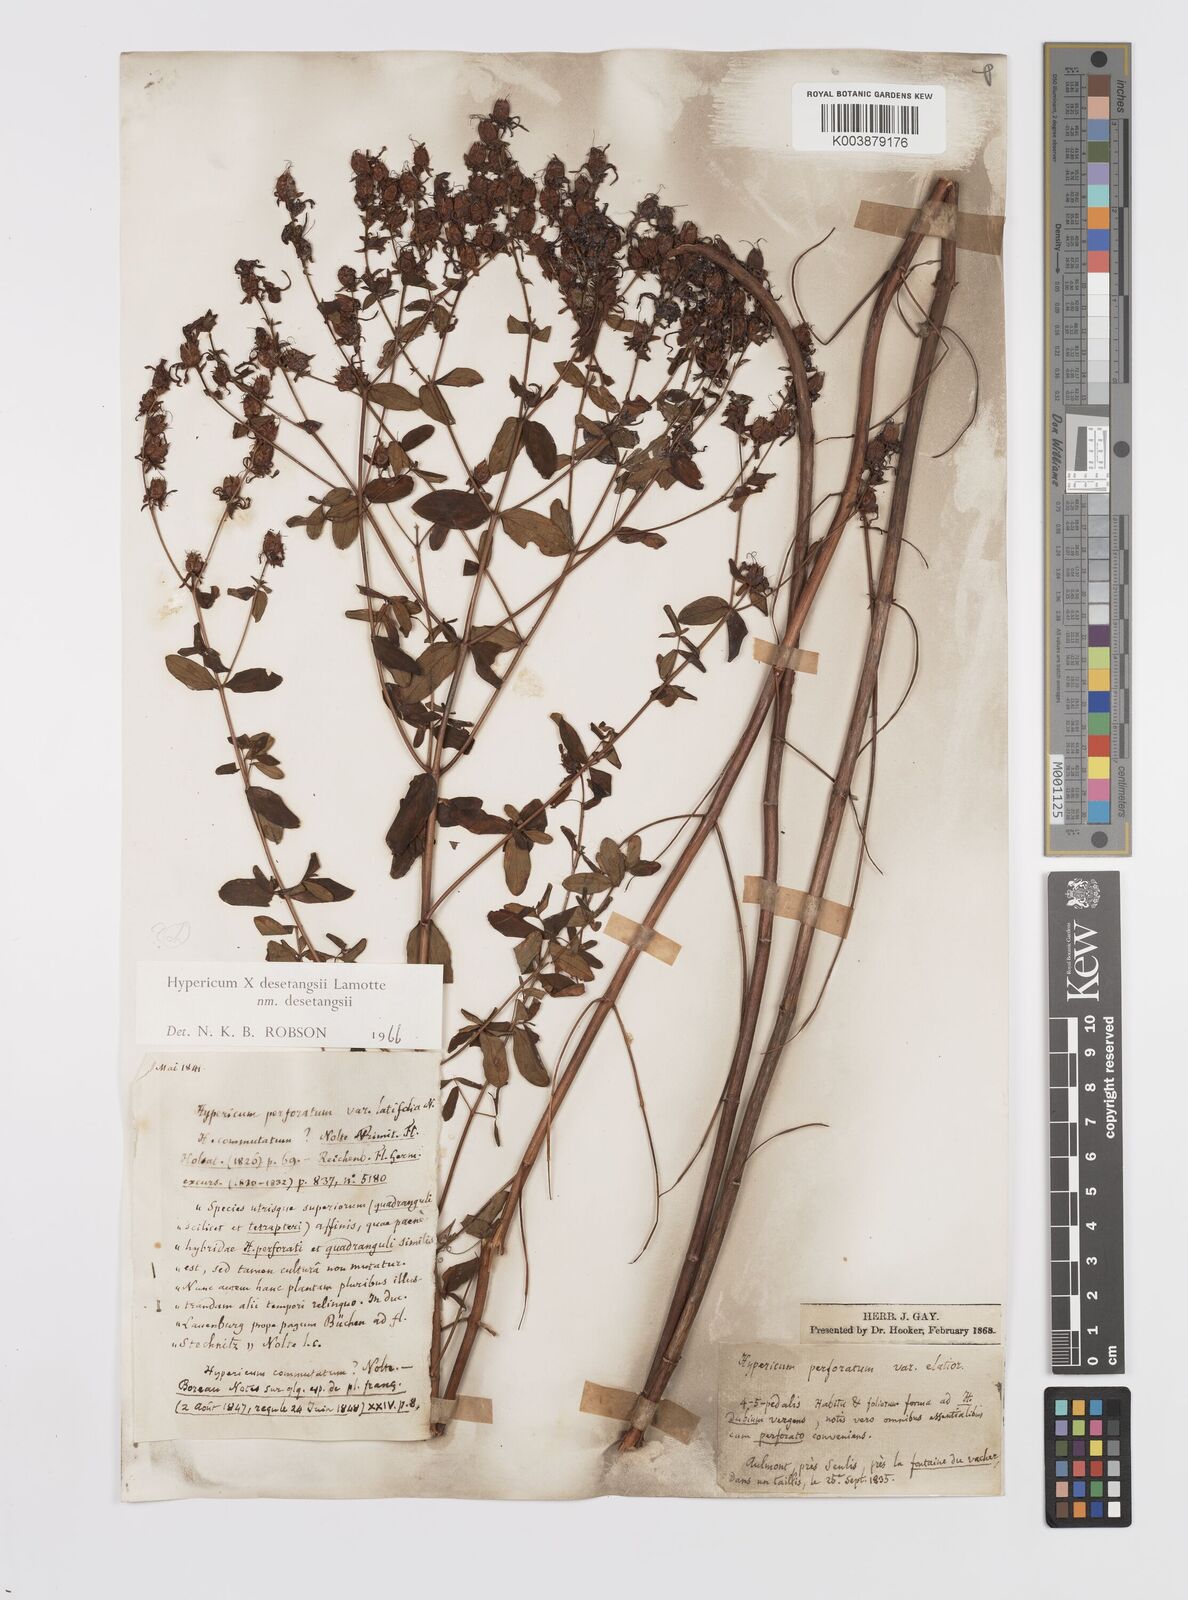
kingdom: Plantae
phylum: Tracheophyta
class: Magnoliopsida
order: Malpighiales
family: Hypericaceae
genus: Hypericum
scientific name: Hypericum desetangsii
